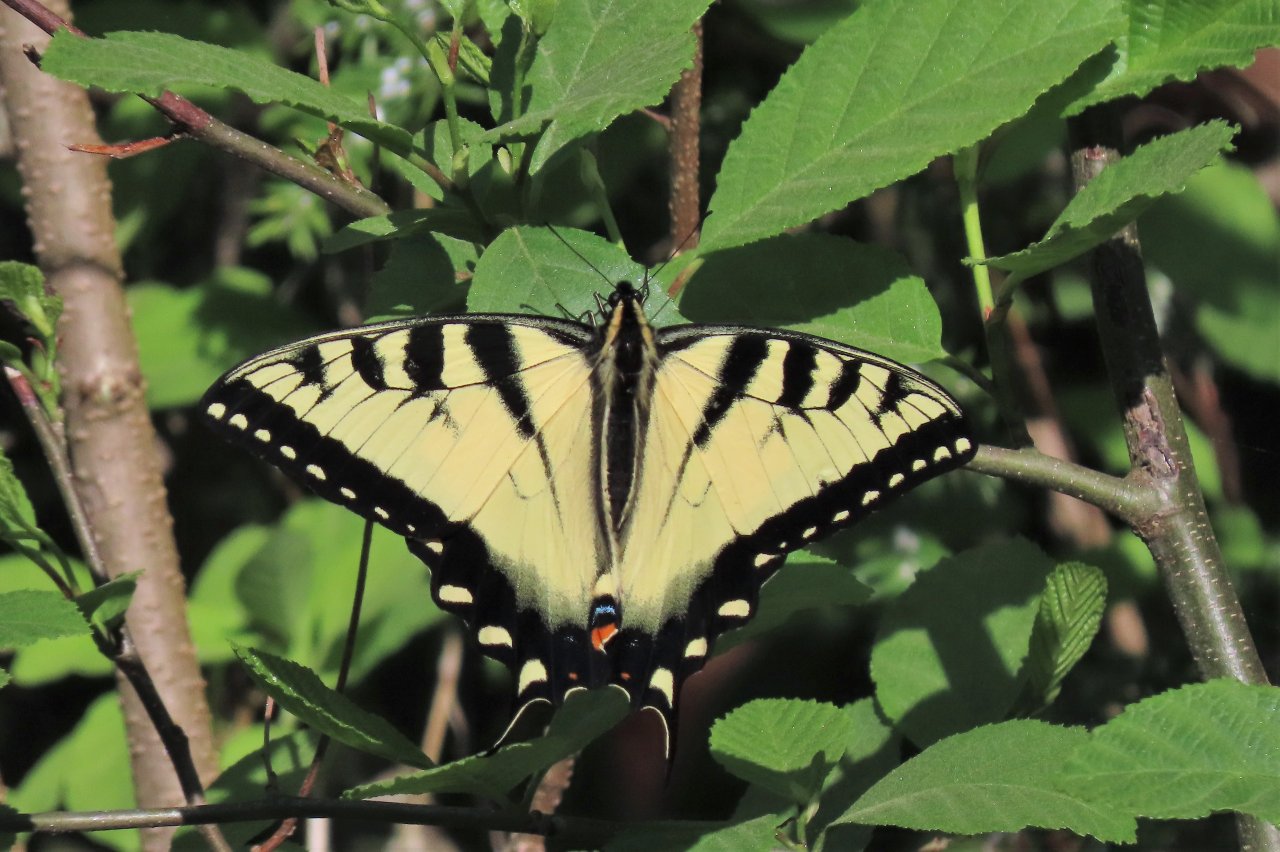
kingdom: Animalia
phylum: Arthropoda
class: Insecta
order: Lepidoptera
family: Papilionidae
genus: Pterourus
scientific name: Pterourus glaucus
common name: Eastern Tiger Swallowtail
